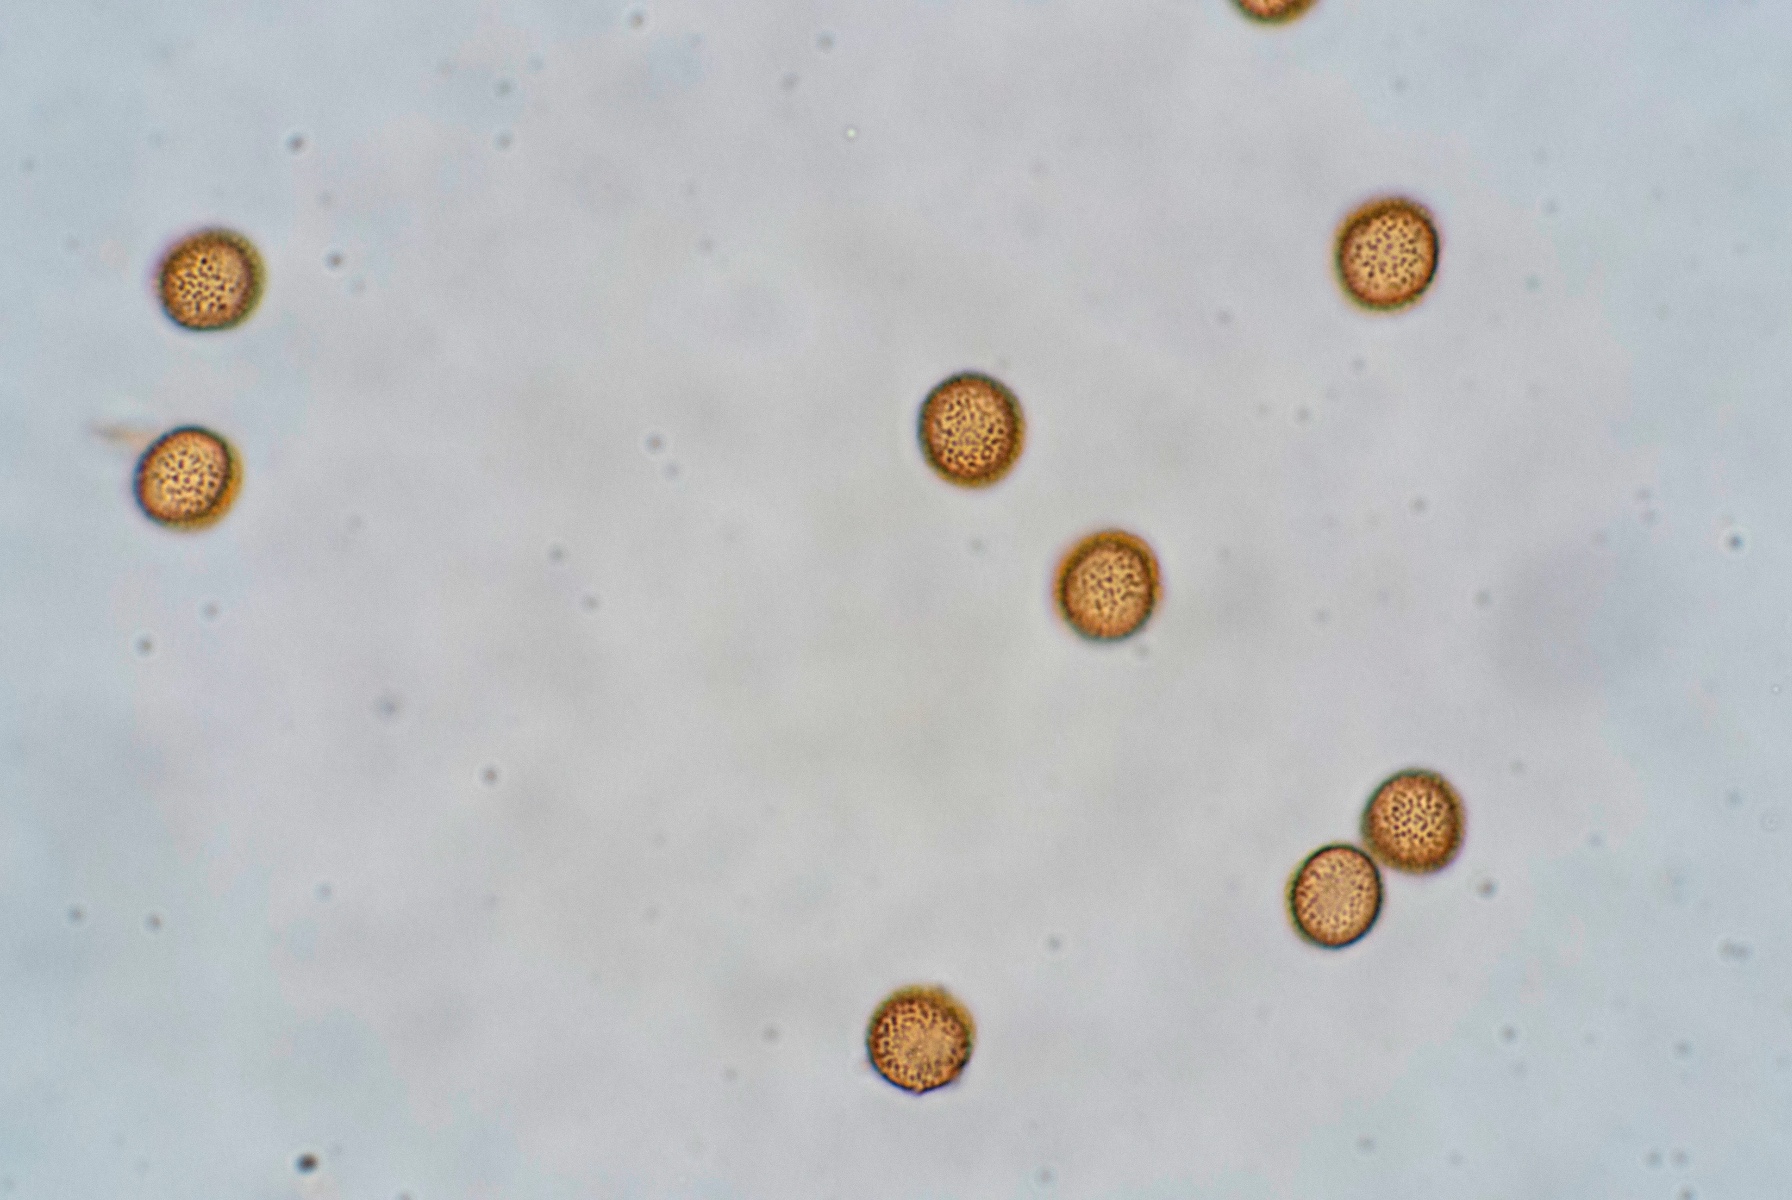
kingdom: Protozoa
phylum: Mycetozoa
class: Myxomycetes
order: Trichiales
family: Trichiaceae
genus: Metatrichia
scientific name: Metatrichia vesparia
